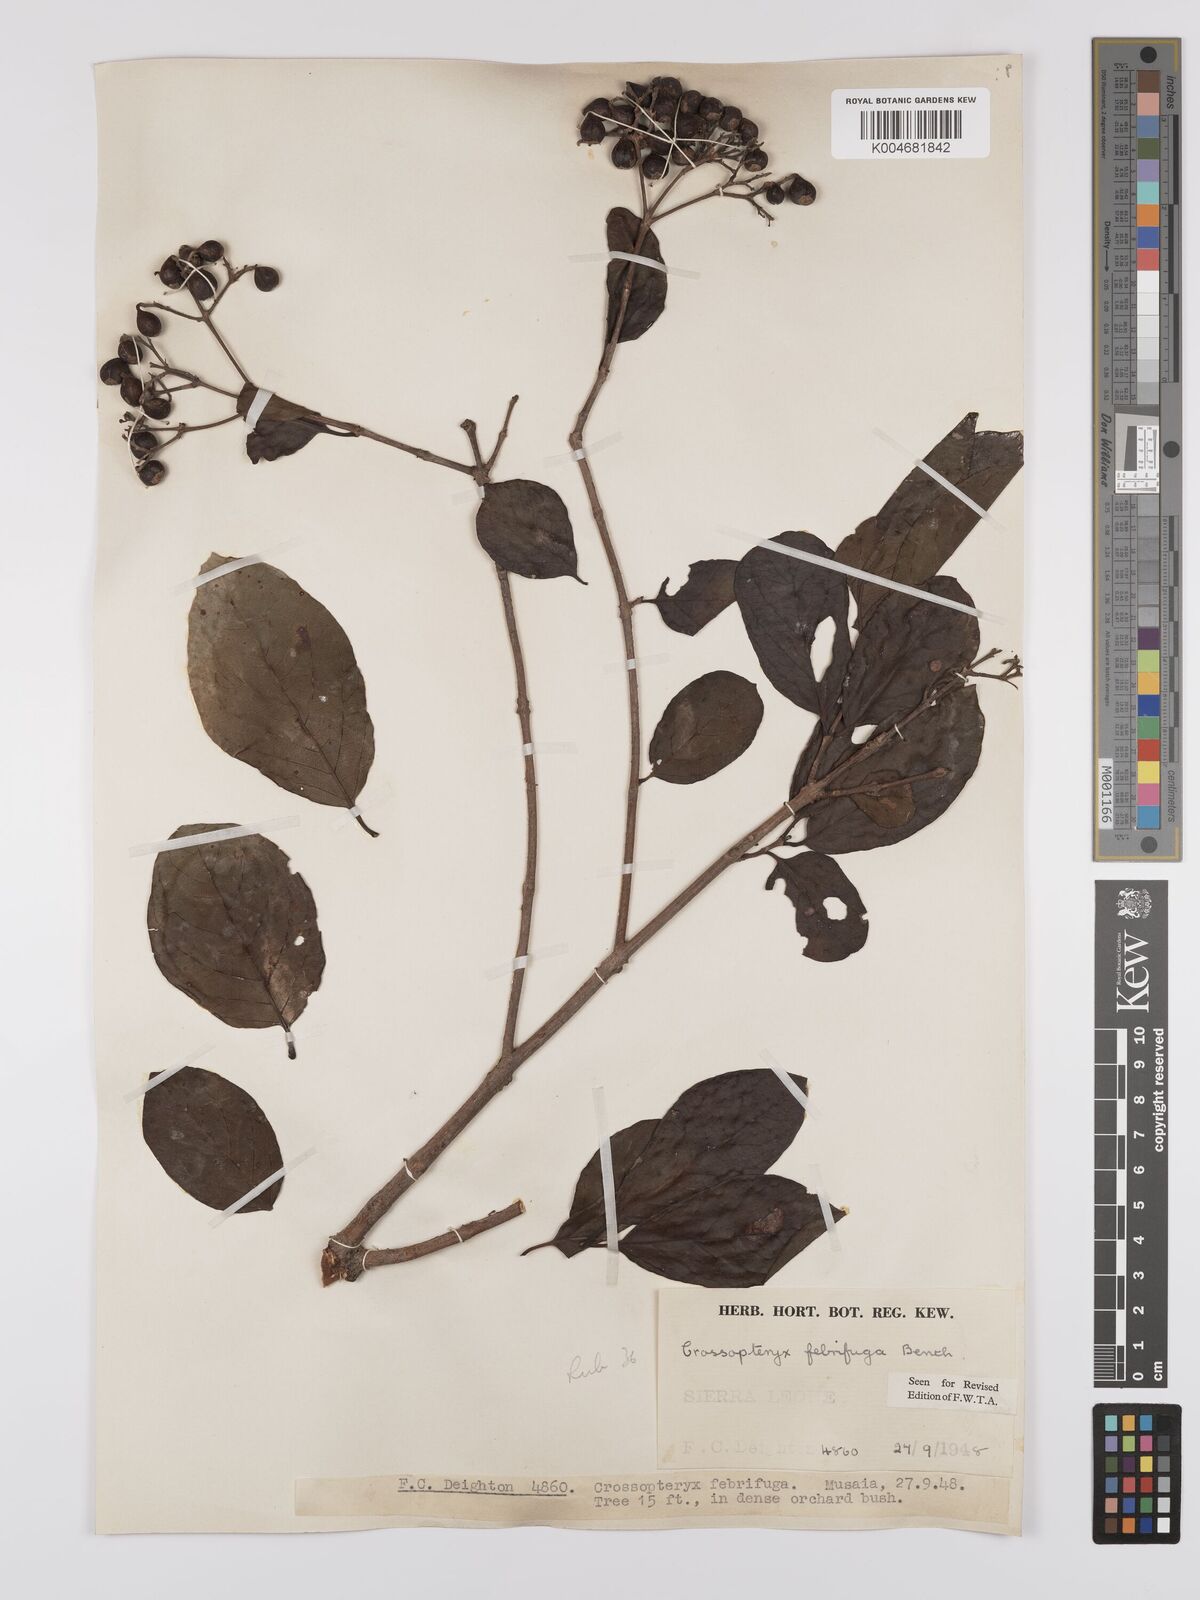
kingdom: Plantae
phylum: Tracheophyta
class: Magnoliopsida
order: Gentianales
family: Rubiaceae
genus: Crossopteryx
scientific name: Crossopteryx febrifuga
